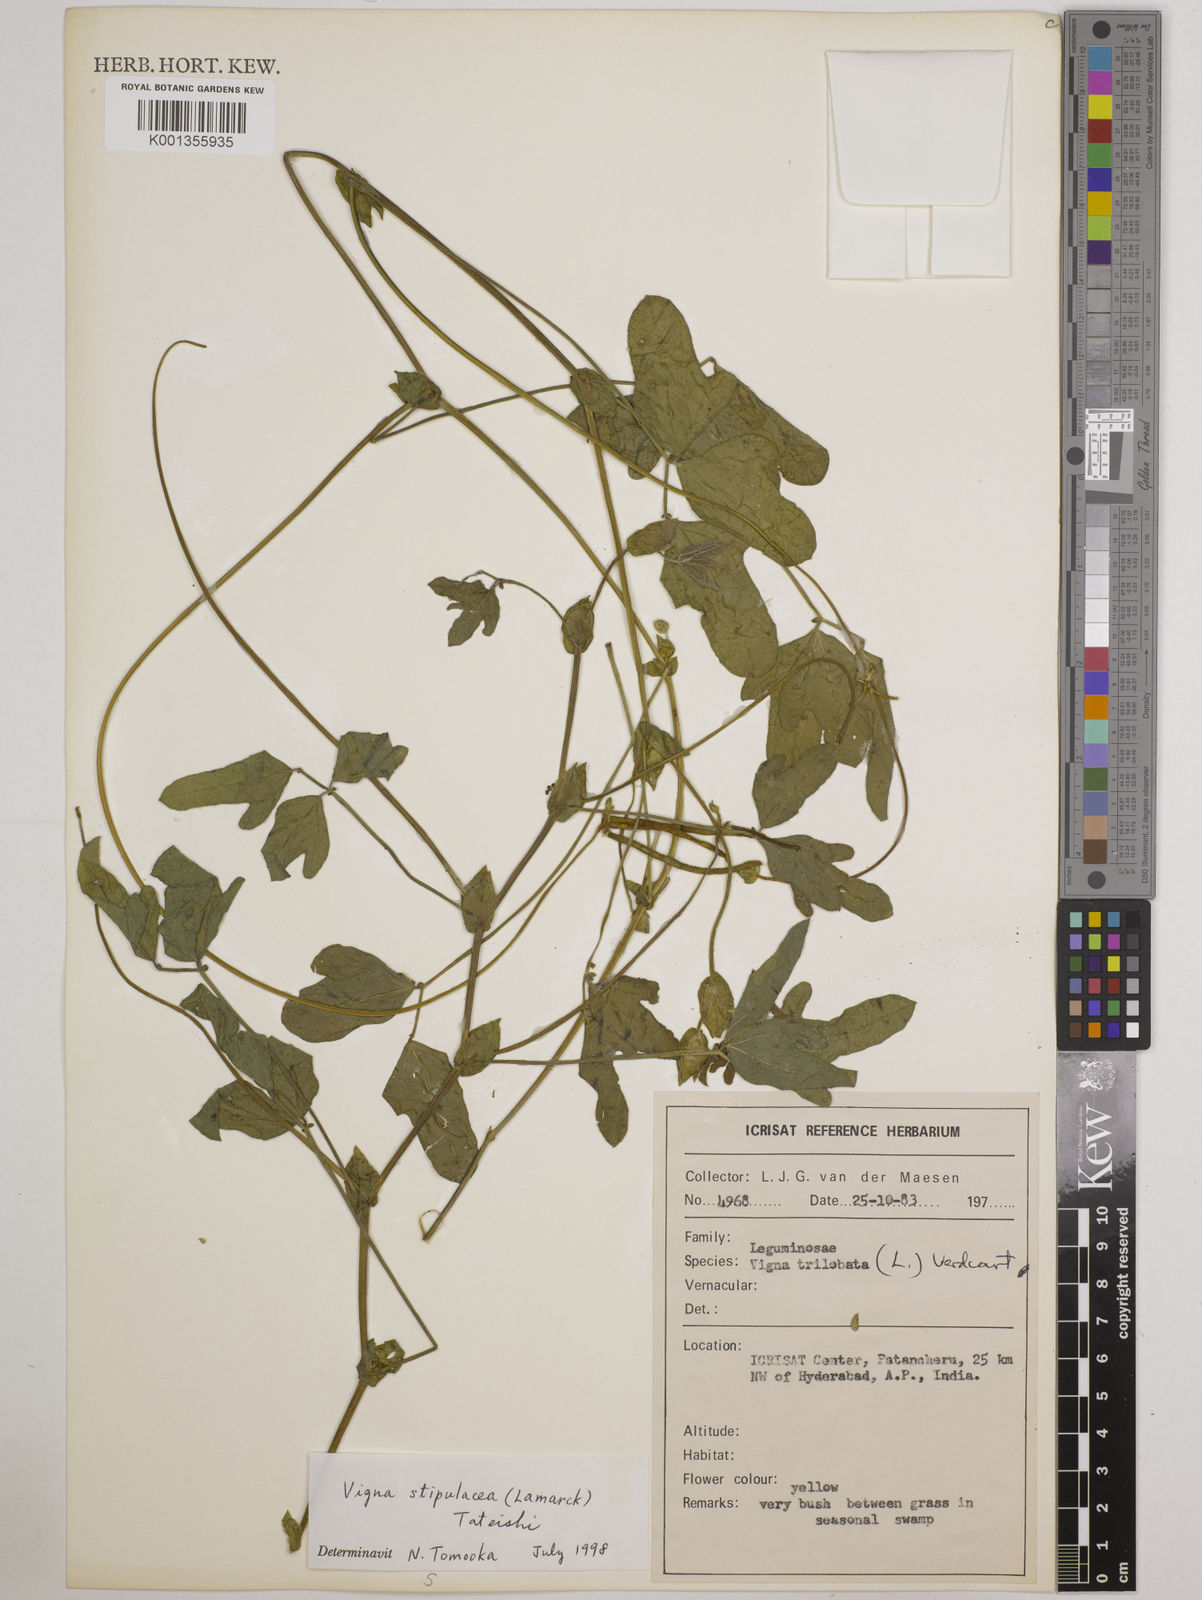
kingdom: Plantae
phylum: Tracheophyta
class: Magnoliopsida
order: Fabales
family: Fabaceae
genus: Pueraria
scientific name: Pueraria montana
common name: Kudzu
